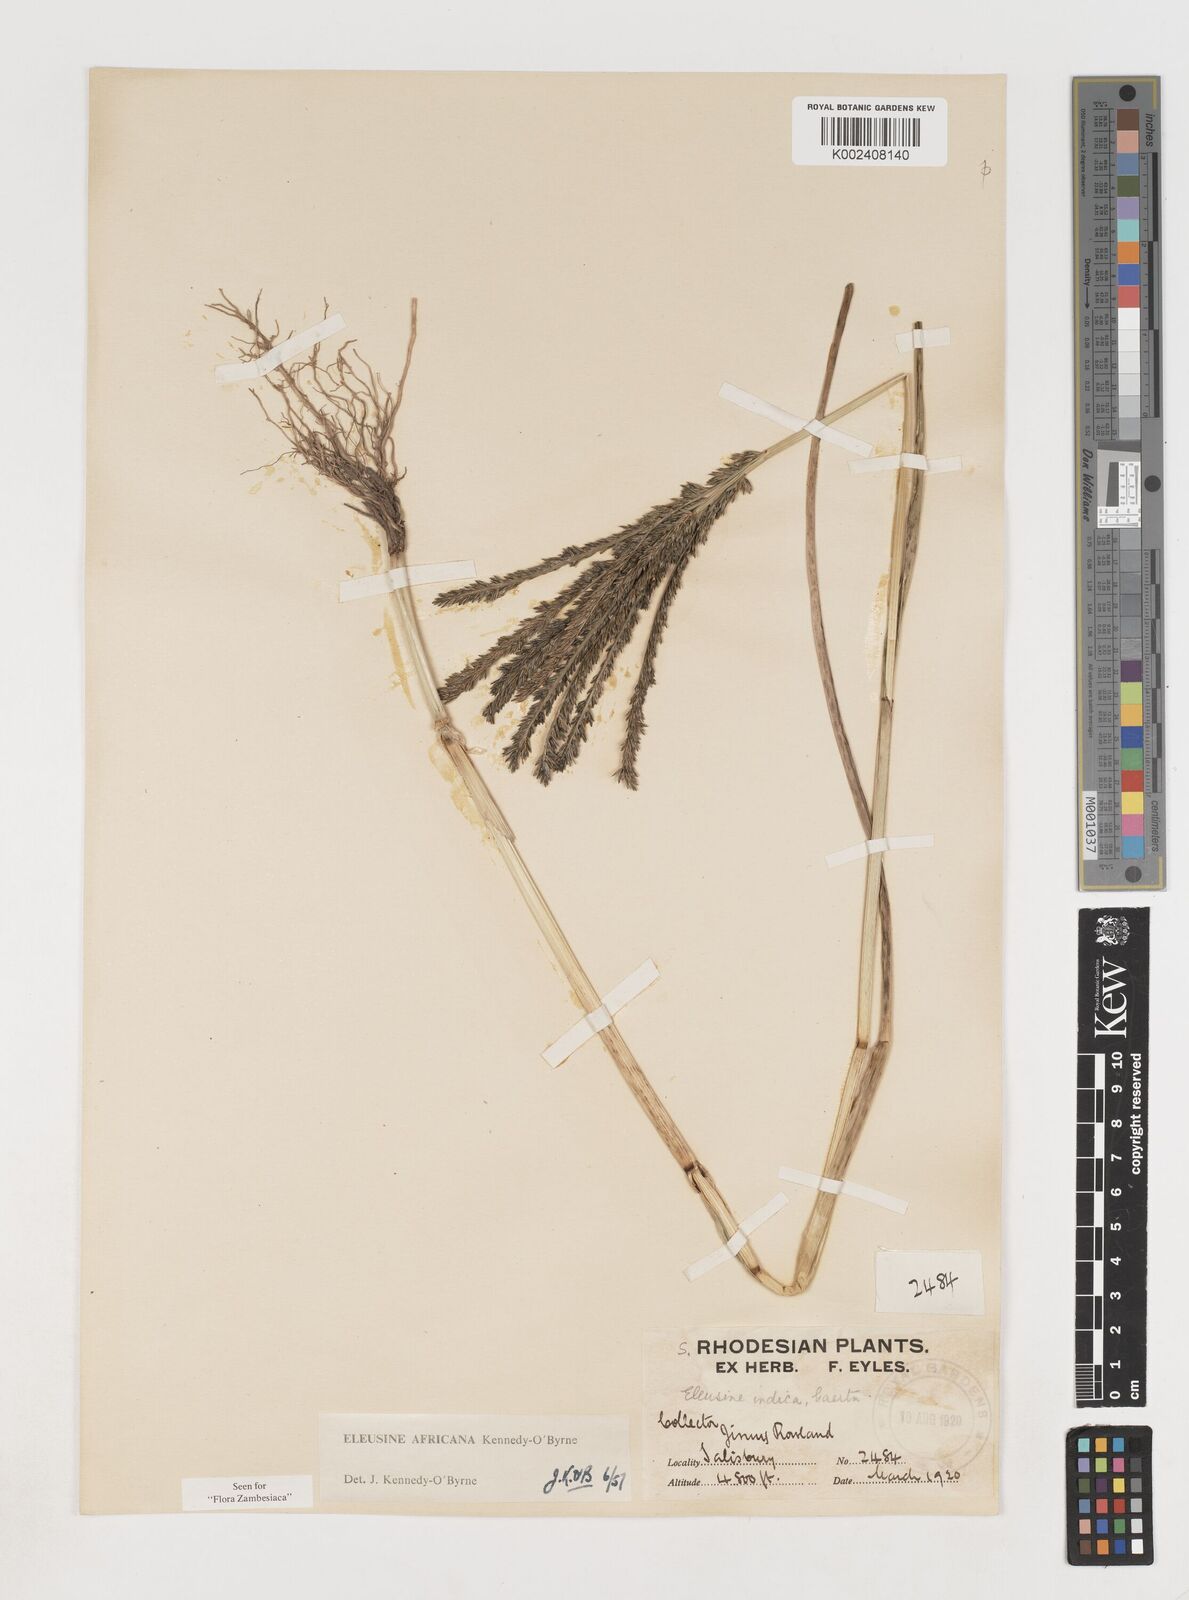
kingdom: Plantae
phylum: Tracheophyta
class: Liliopsida
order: Poales
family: Poaceae
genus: Eleusine
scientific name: Eleusine africana
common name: Wild african finger millet
